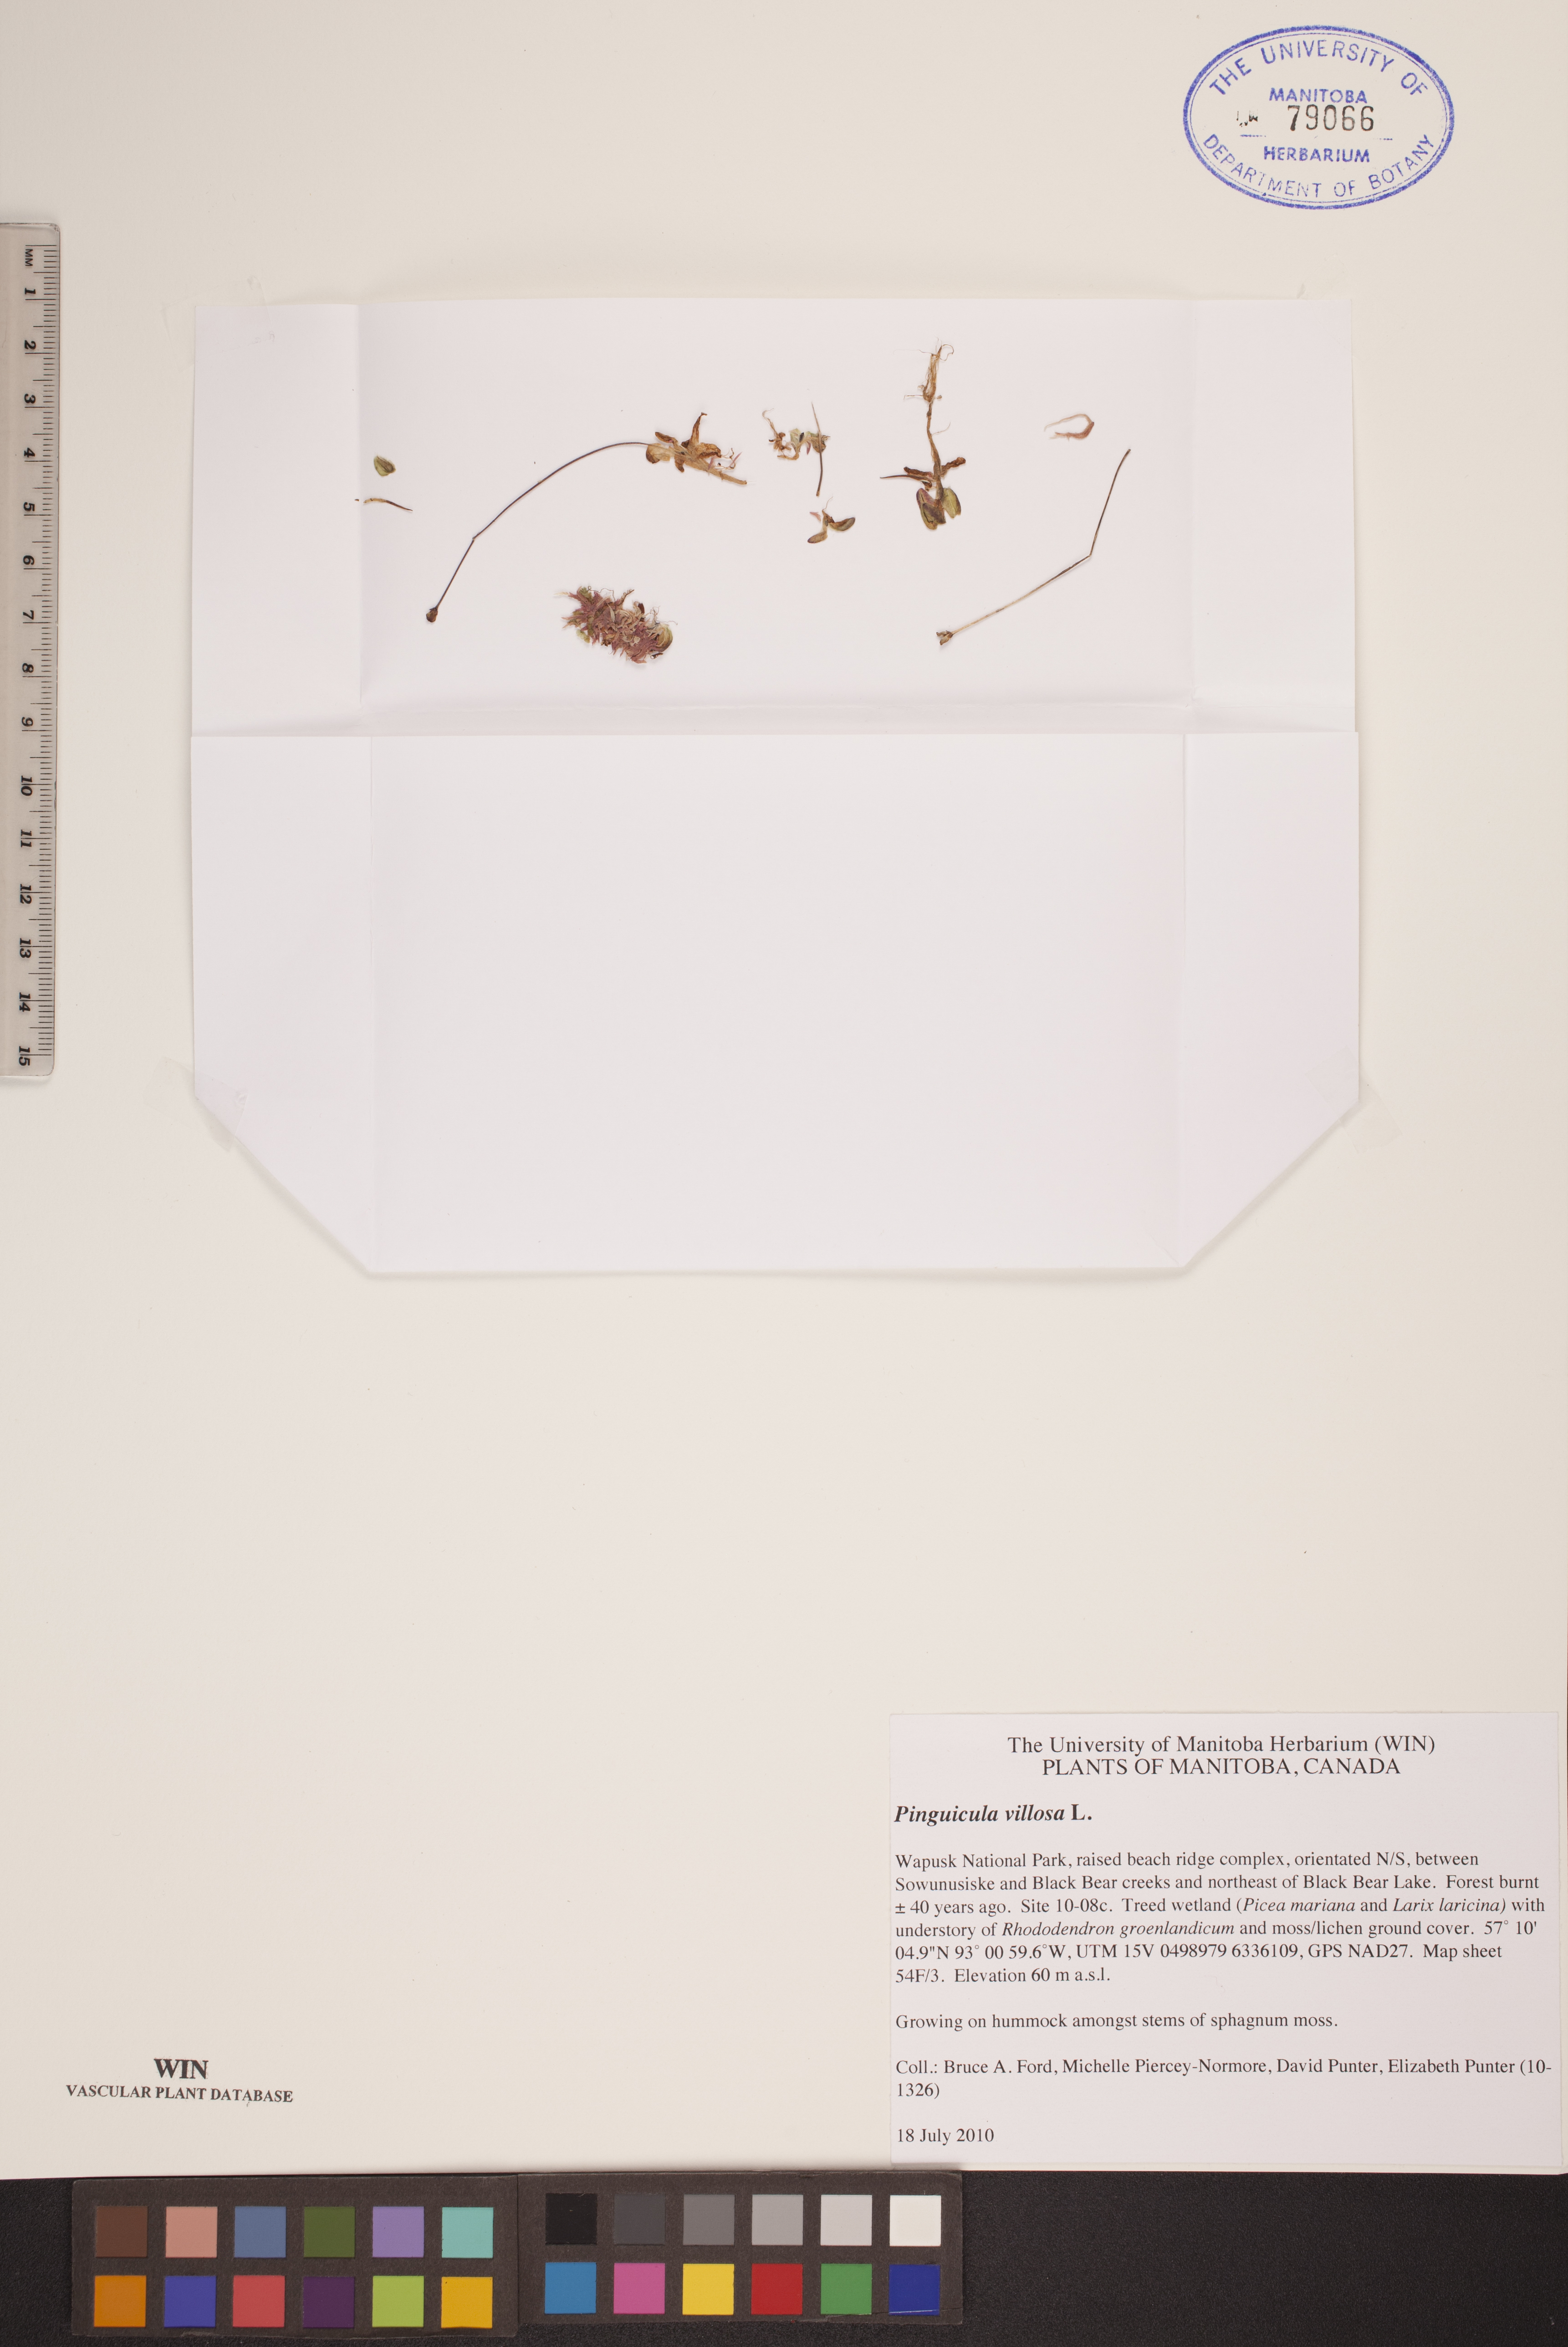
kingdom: Plantae
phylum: Tracheophyta
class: Magnoliopsida
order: Lamiales
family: Lentibulariaceae
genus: Pinguicula
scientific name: Pinguicula villosa
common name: Hairy butterwort
